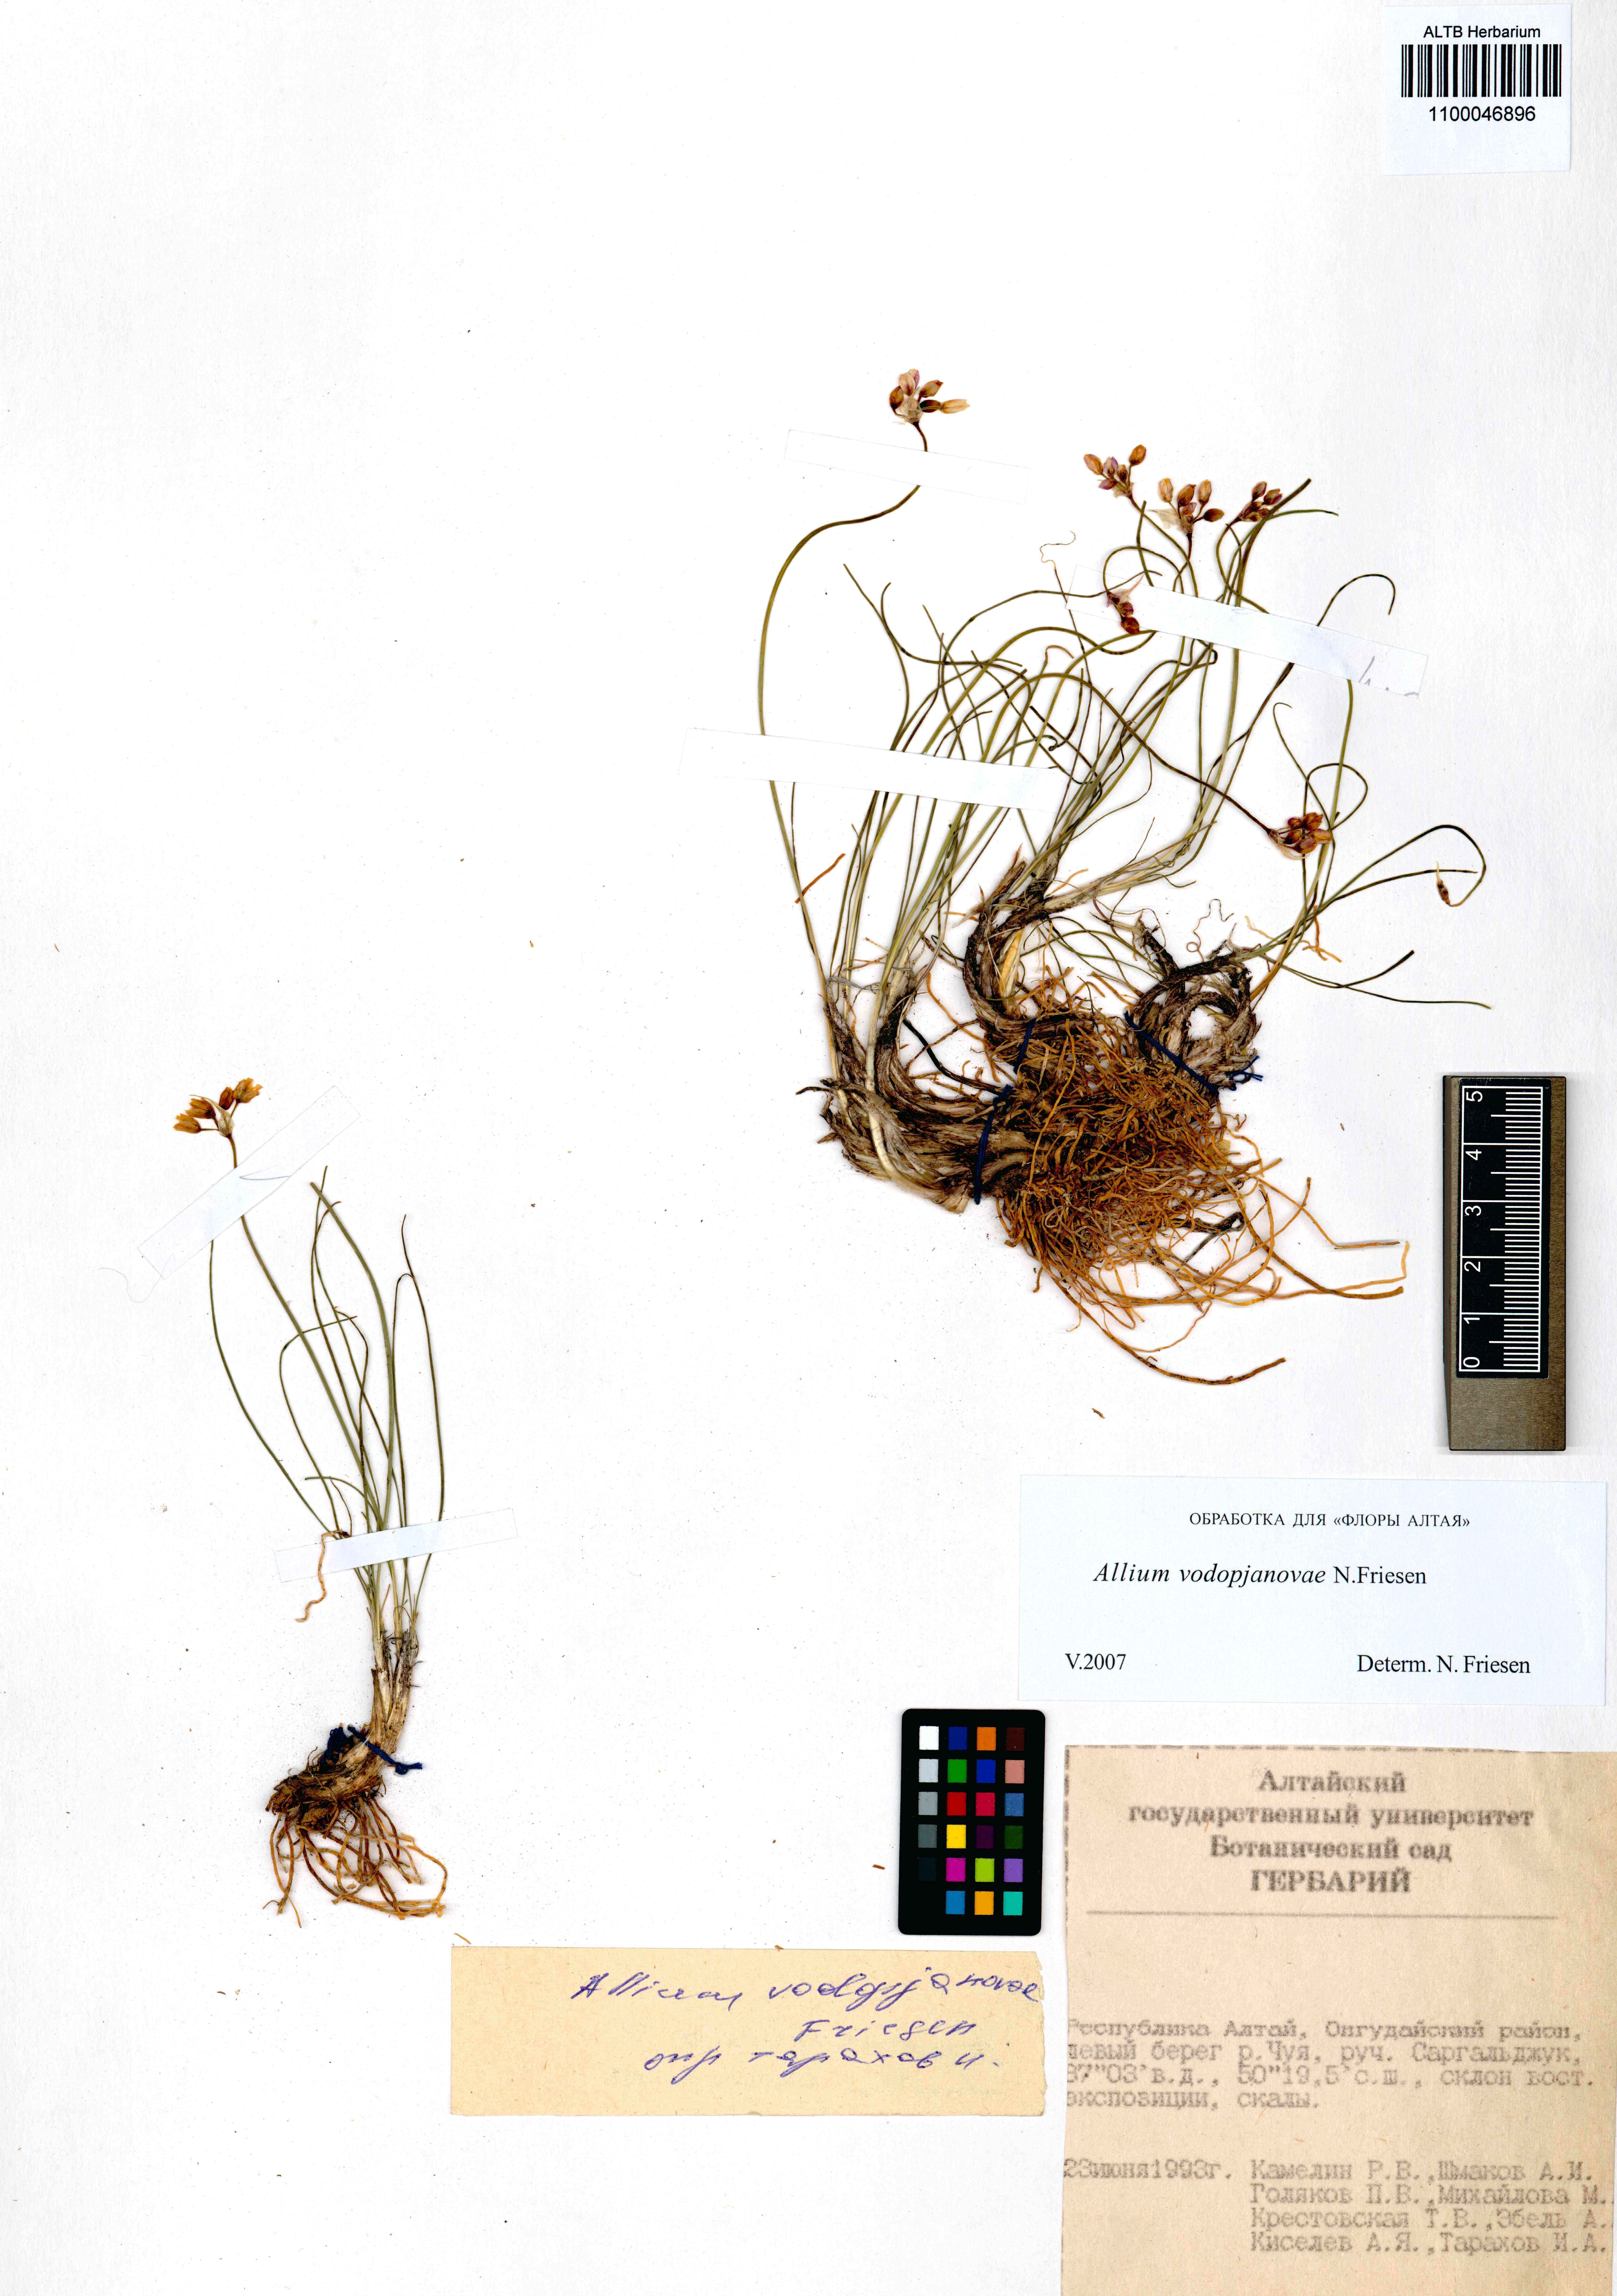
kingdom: Plantae
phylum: Tracheophyta
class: Liliopsida
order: Asparagales
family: Amaryllidaceae
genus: Allium
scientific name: Allium vodopjanovae
